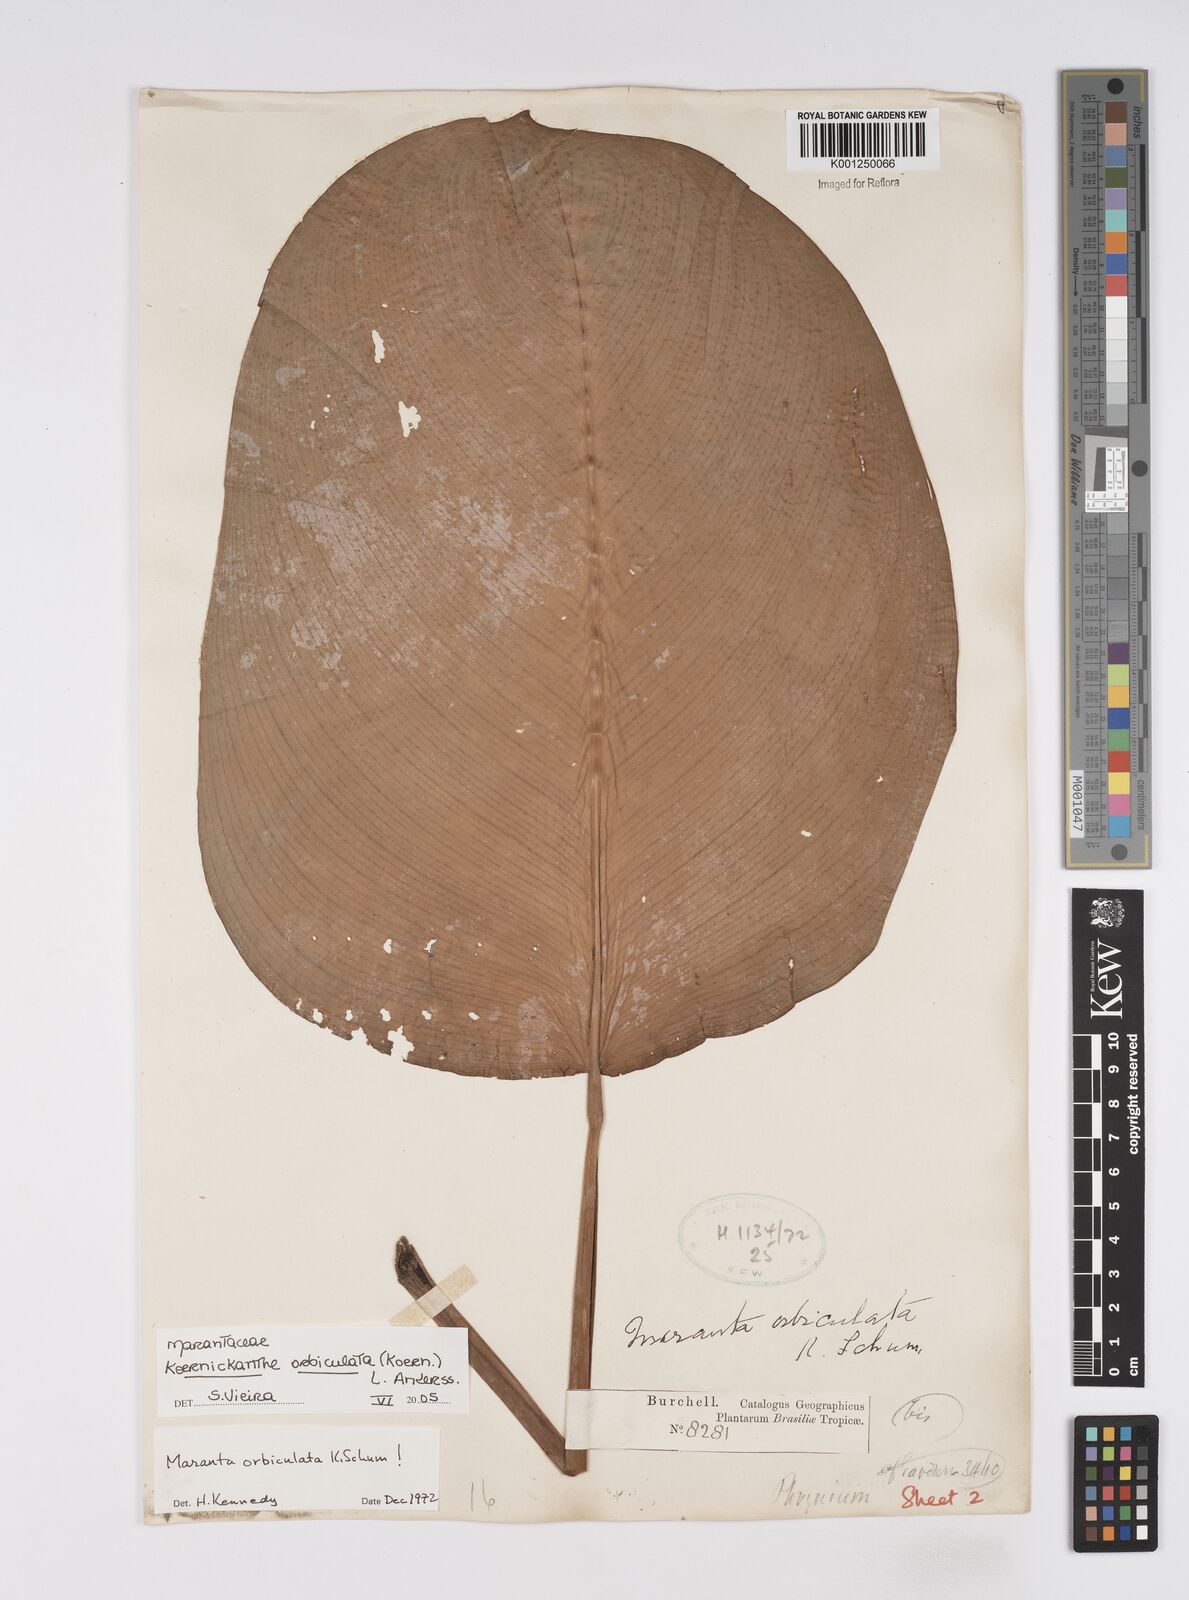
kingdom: Plantae
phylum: Tracheophyta
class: Liliopsida
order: Zingiberales
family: Marantaceae
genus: Koernickanthe
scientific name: Koernickanthe orbiculata
